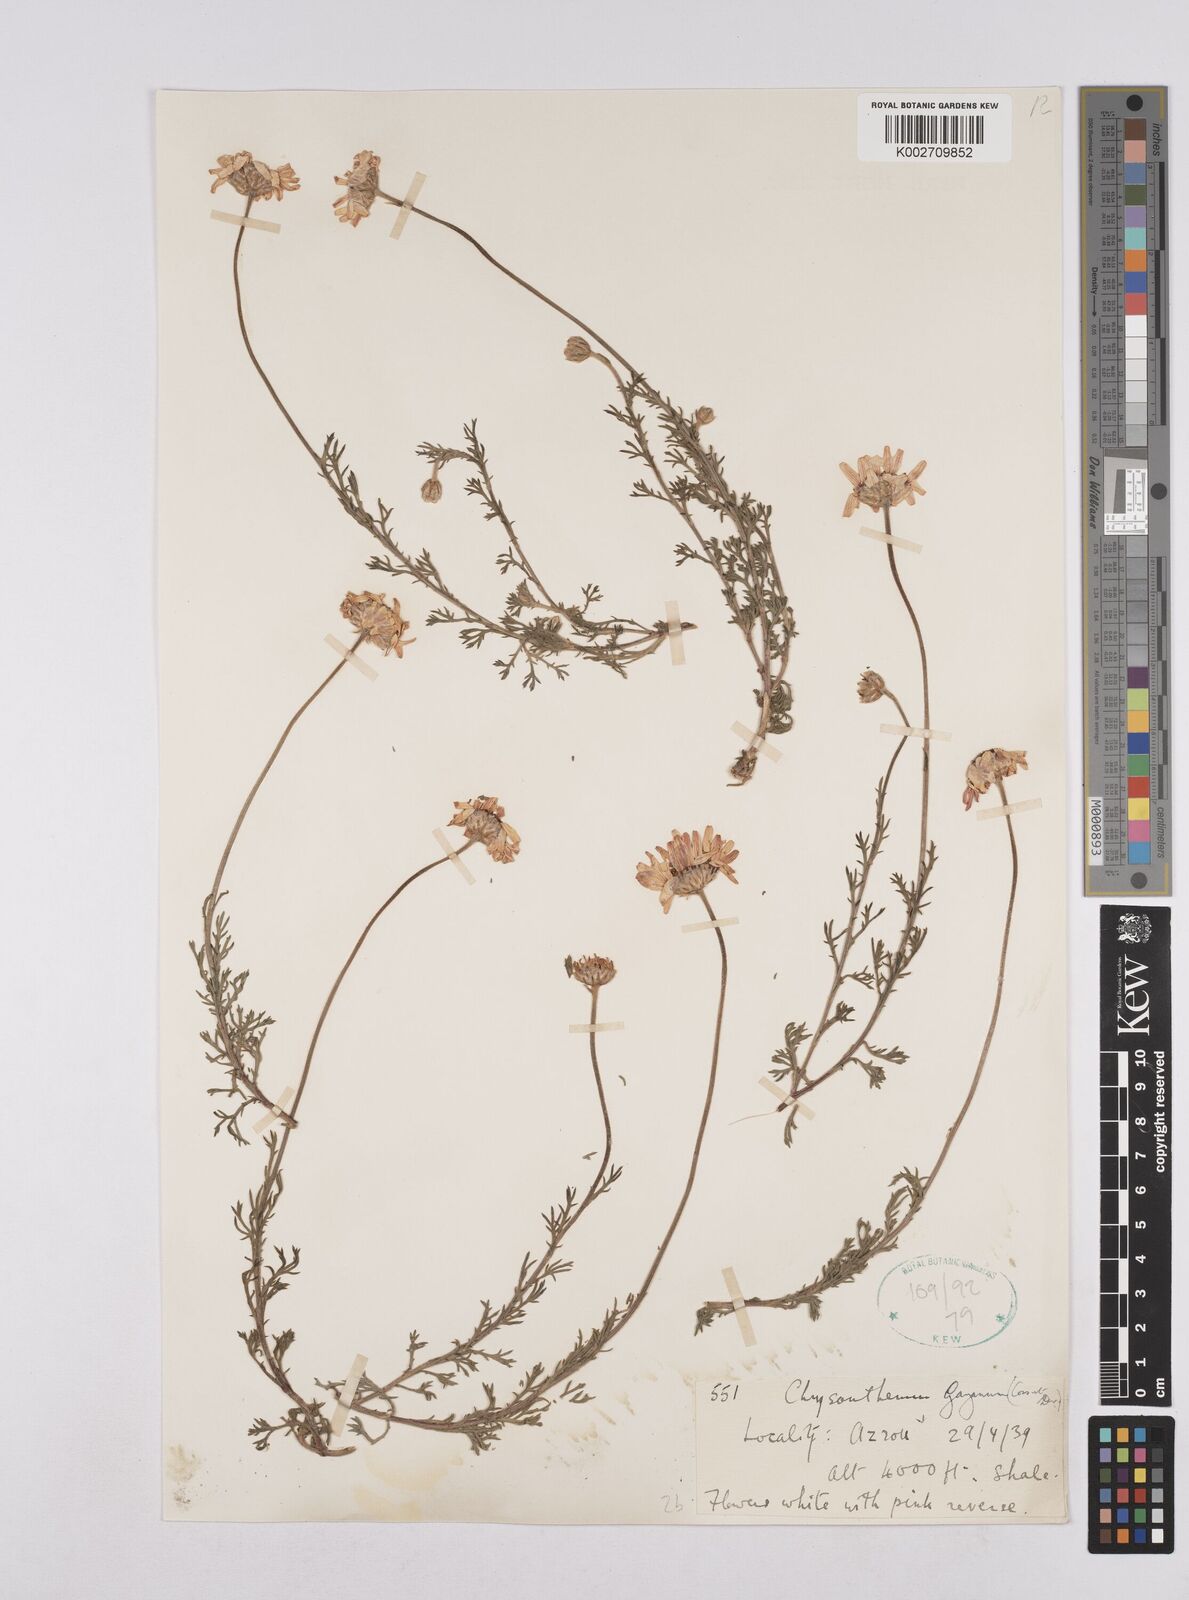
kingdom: Plantae
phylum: Tracheophyta
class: Magnoliopsida
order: Asterales
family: Asteraceae
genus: Rhodanthemum
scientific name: Rhodanthemum gayanum
